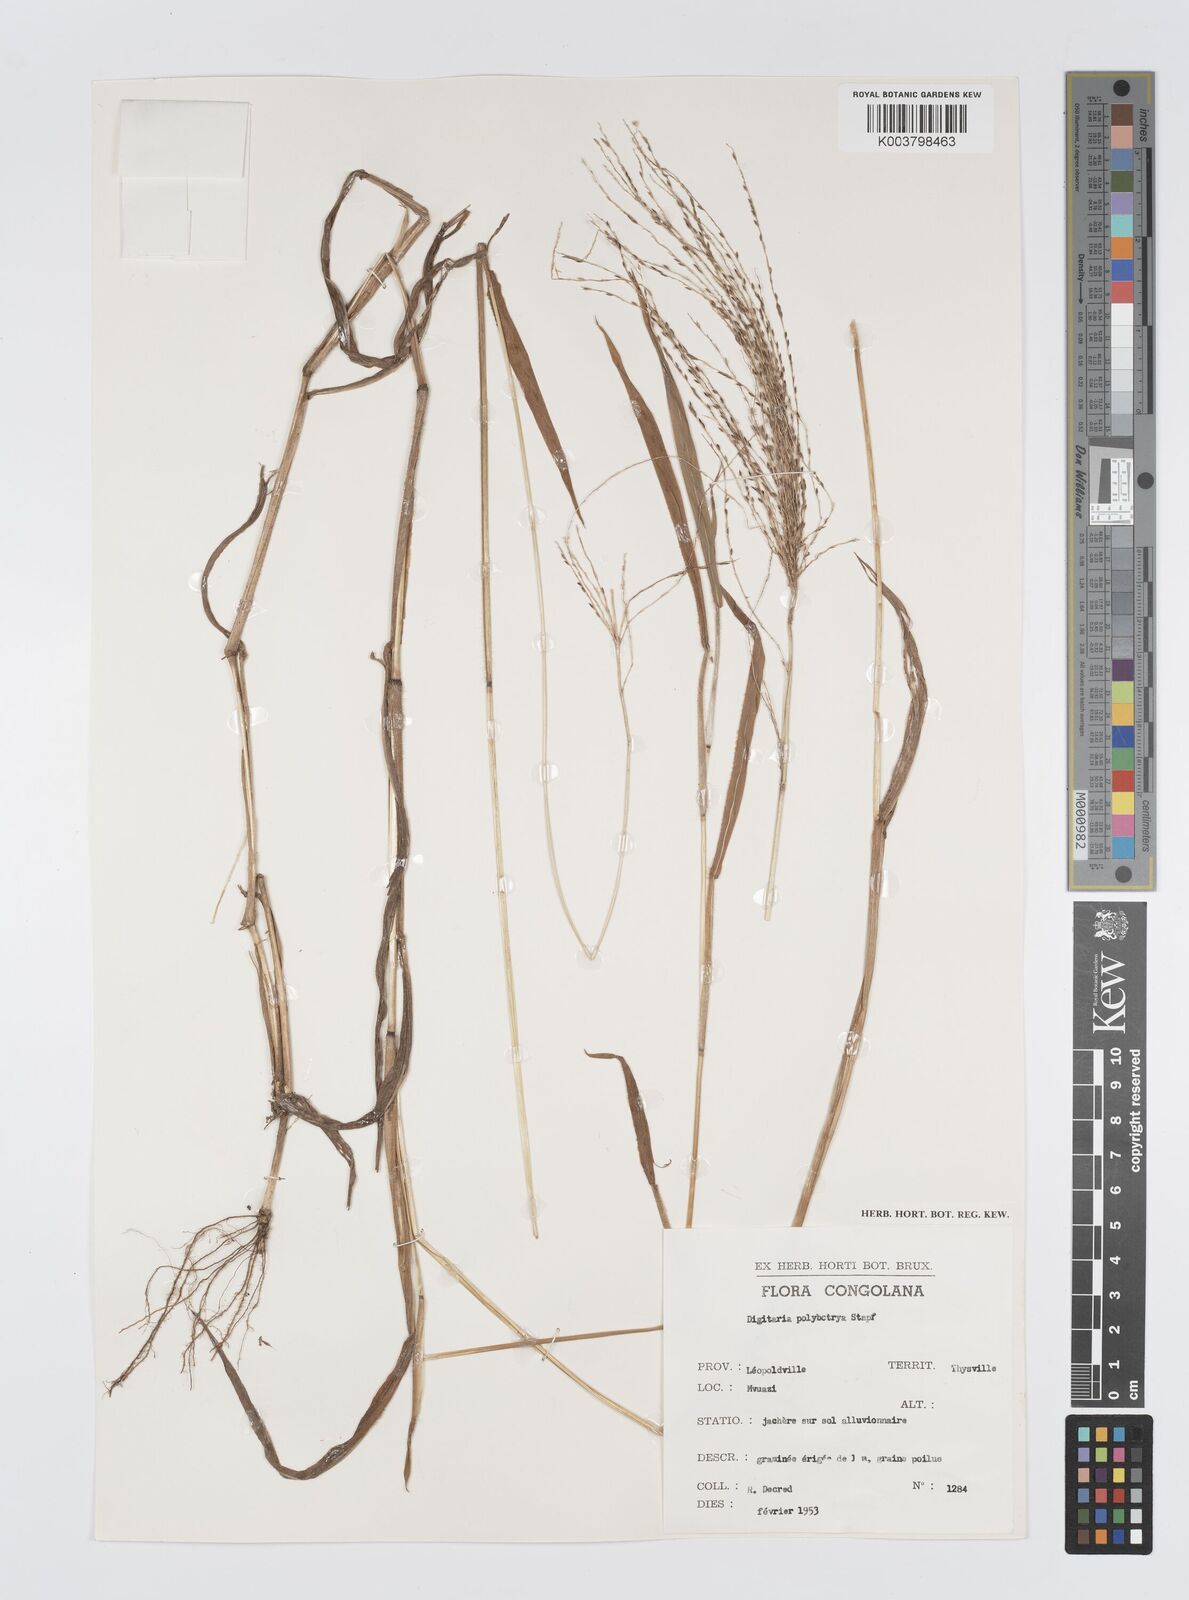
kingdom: Plantae
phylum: Tracheophyta
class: Liliopsida
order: Poales
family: Poaceae
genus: Digitaria
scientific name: Digitaria leptorhachis
